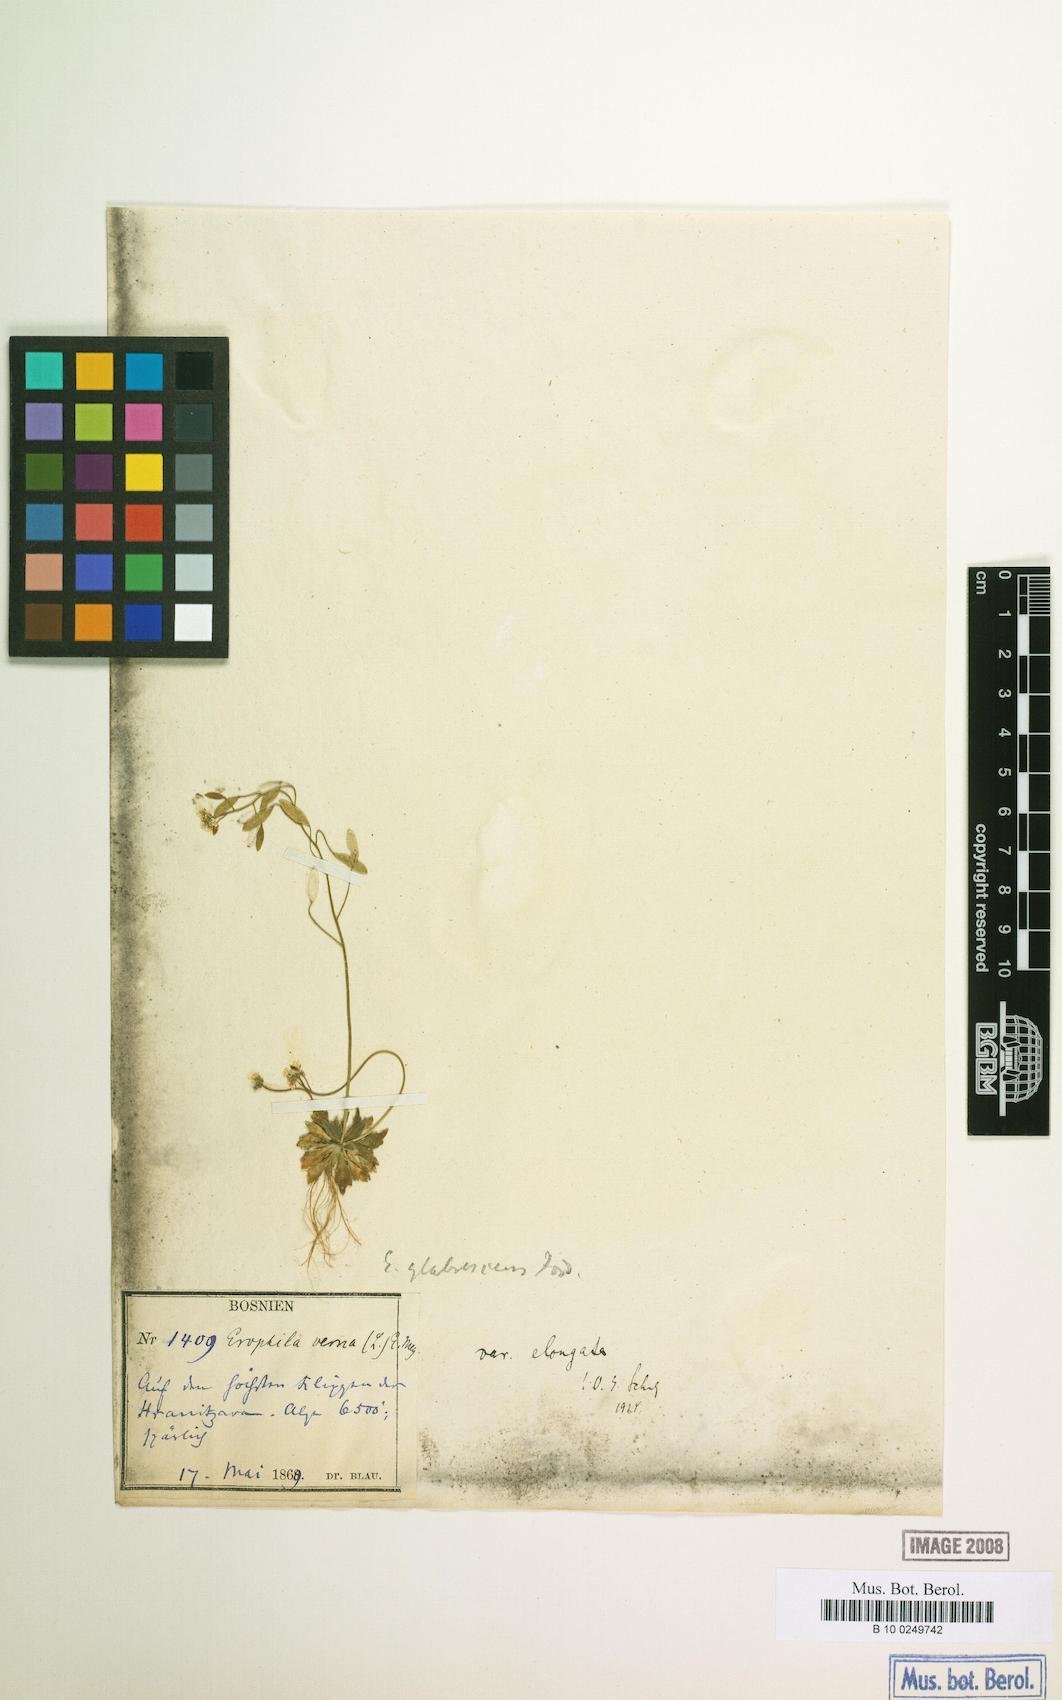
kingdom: Plantae
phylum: Tracheophyta
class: Magnoliopsida
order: Brassicales
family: Brassicaceae
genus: Draba
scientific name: Draba verna
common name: Spring draba
